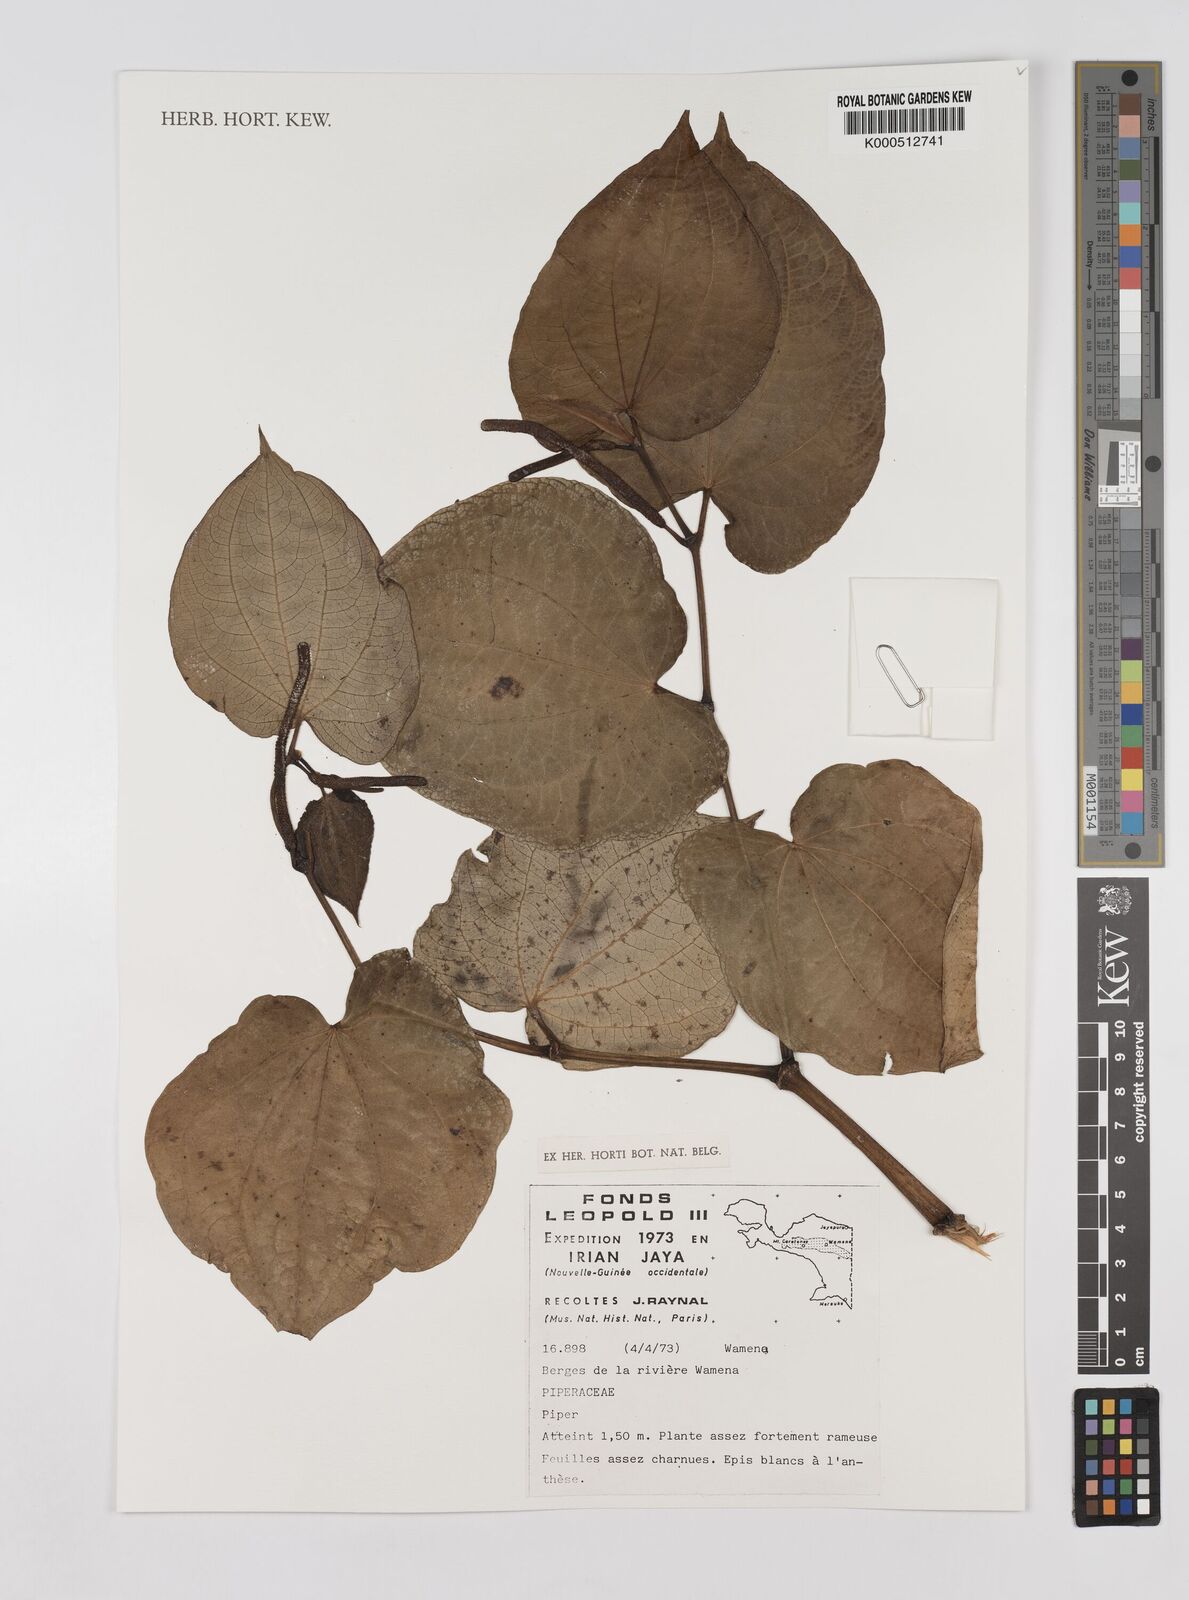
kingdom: Plantae
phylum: Tracheophyta
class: Magnoliopsida
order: Piperales
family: Piperaceae
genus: Peperomia
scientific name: Peperomia
